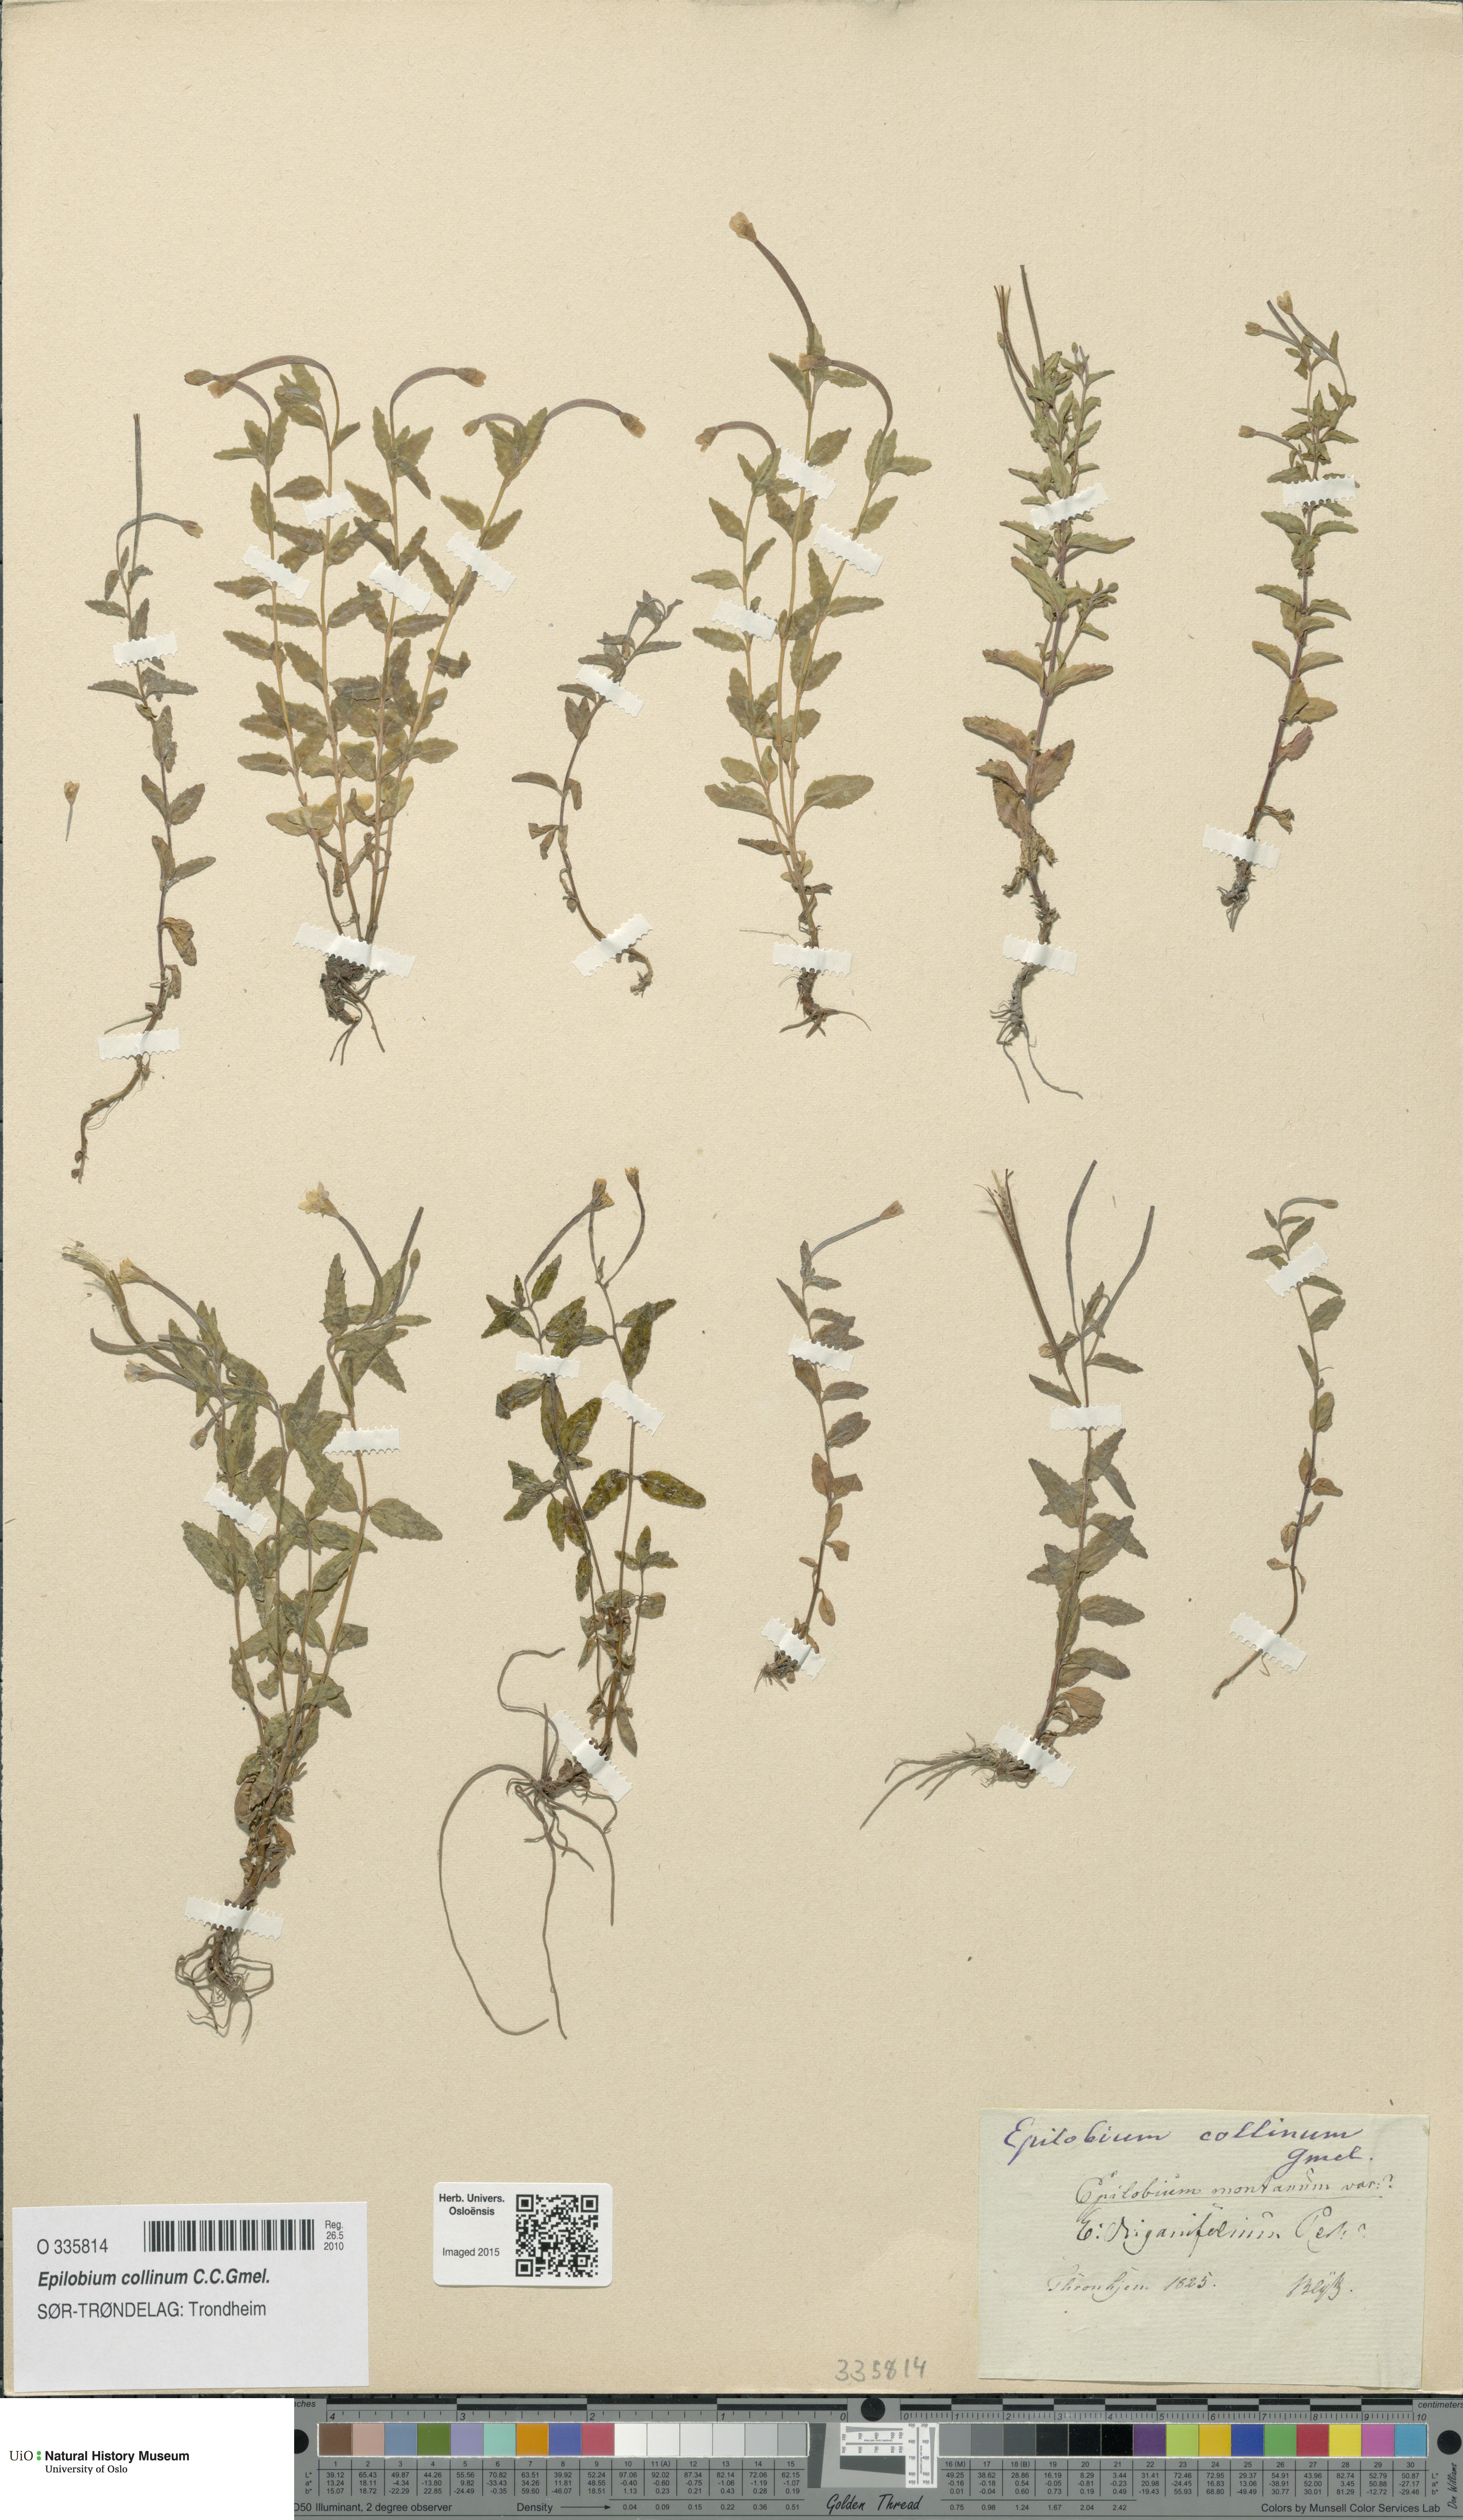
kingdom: Plantae
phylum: Tracheophyta
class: Magnoliopsida
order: Myrtales
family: Onagraceae
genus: Epilobium
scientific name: Epilobium collinum
